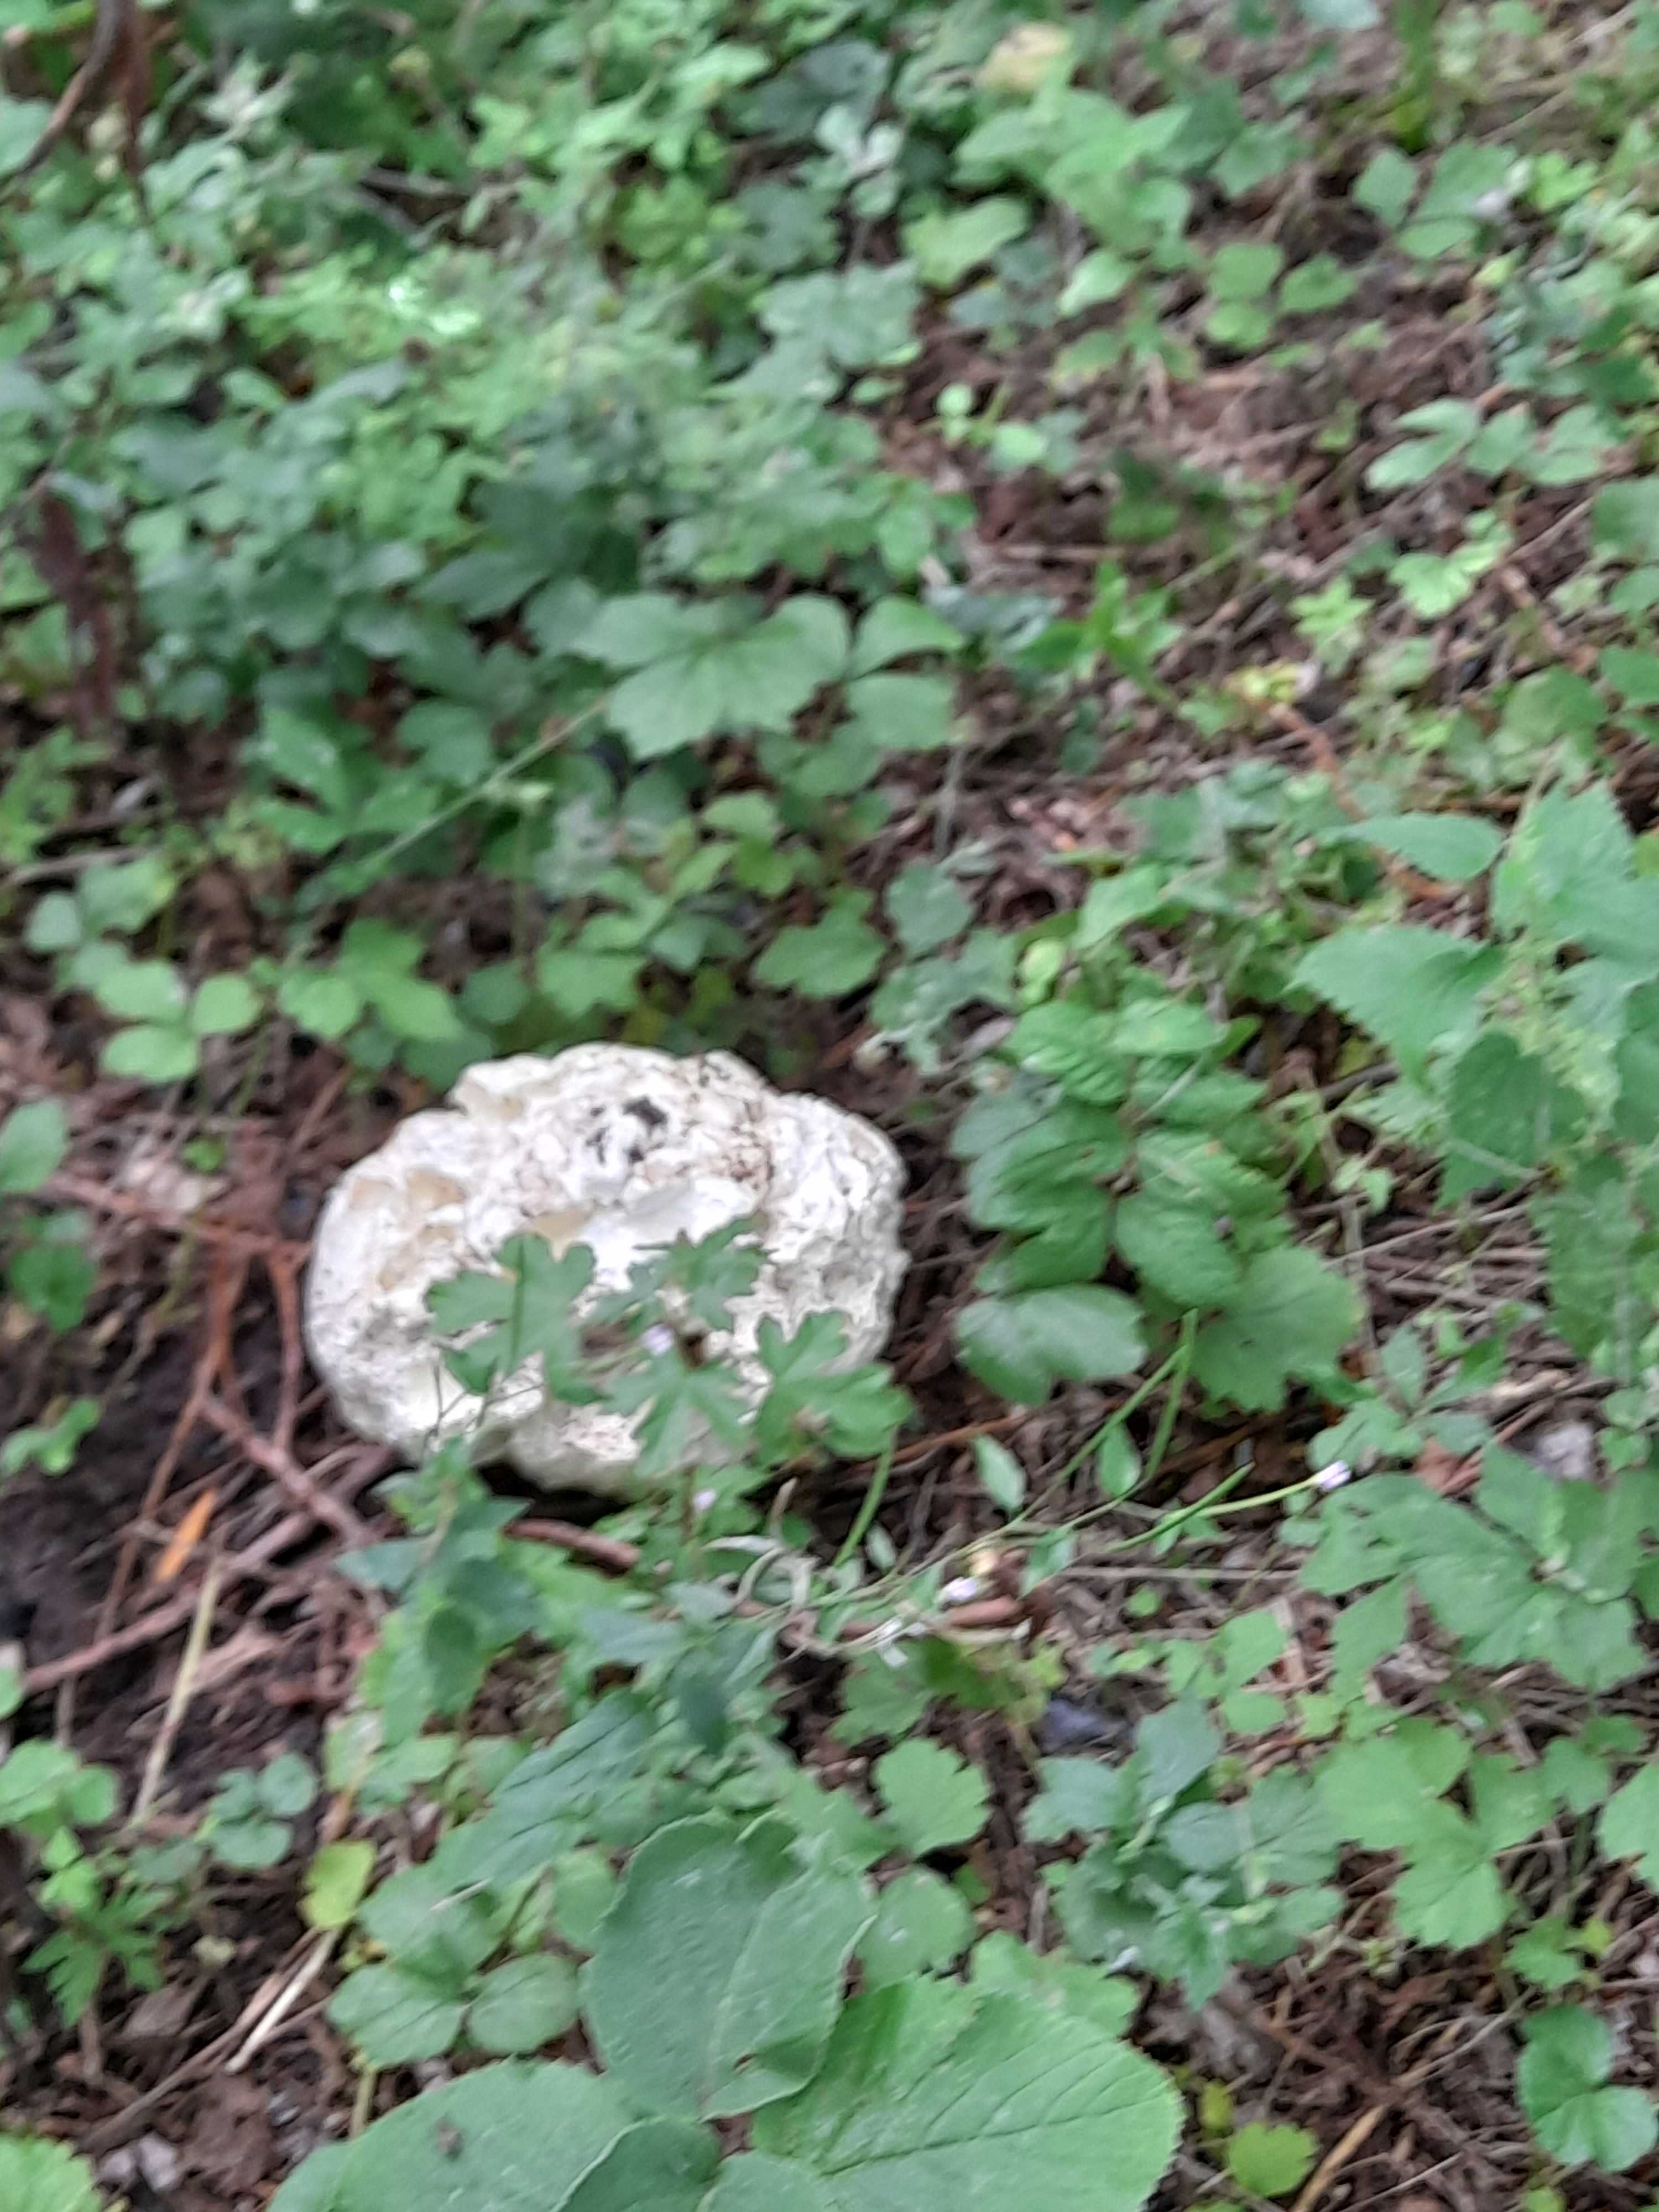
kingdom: Fungi
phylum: Basidiomycota
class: Agaricomycetes
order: Agaricales
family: Lycoperdaceae
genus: Calvatia
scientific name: Calvatia gigantea
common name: kæmpestøvbold
